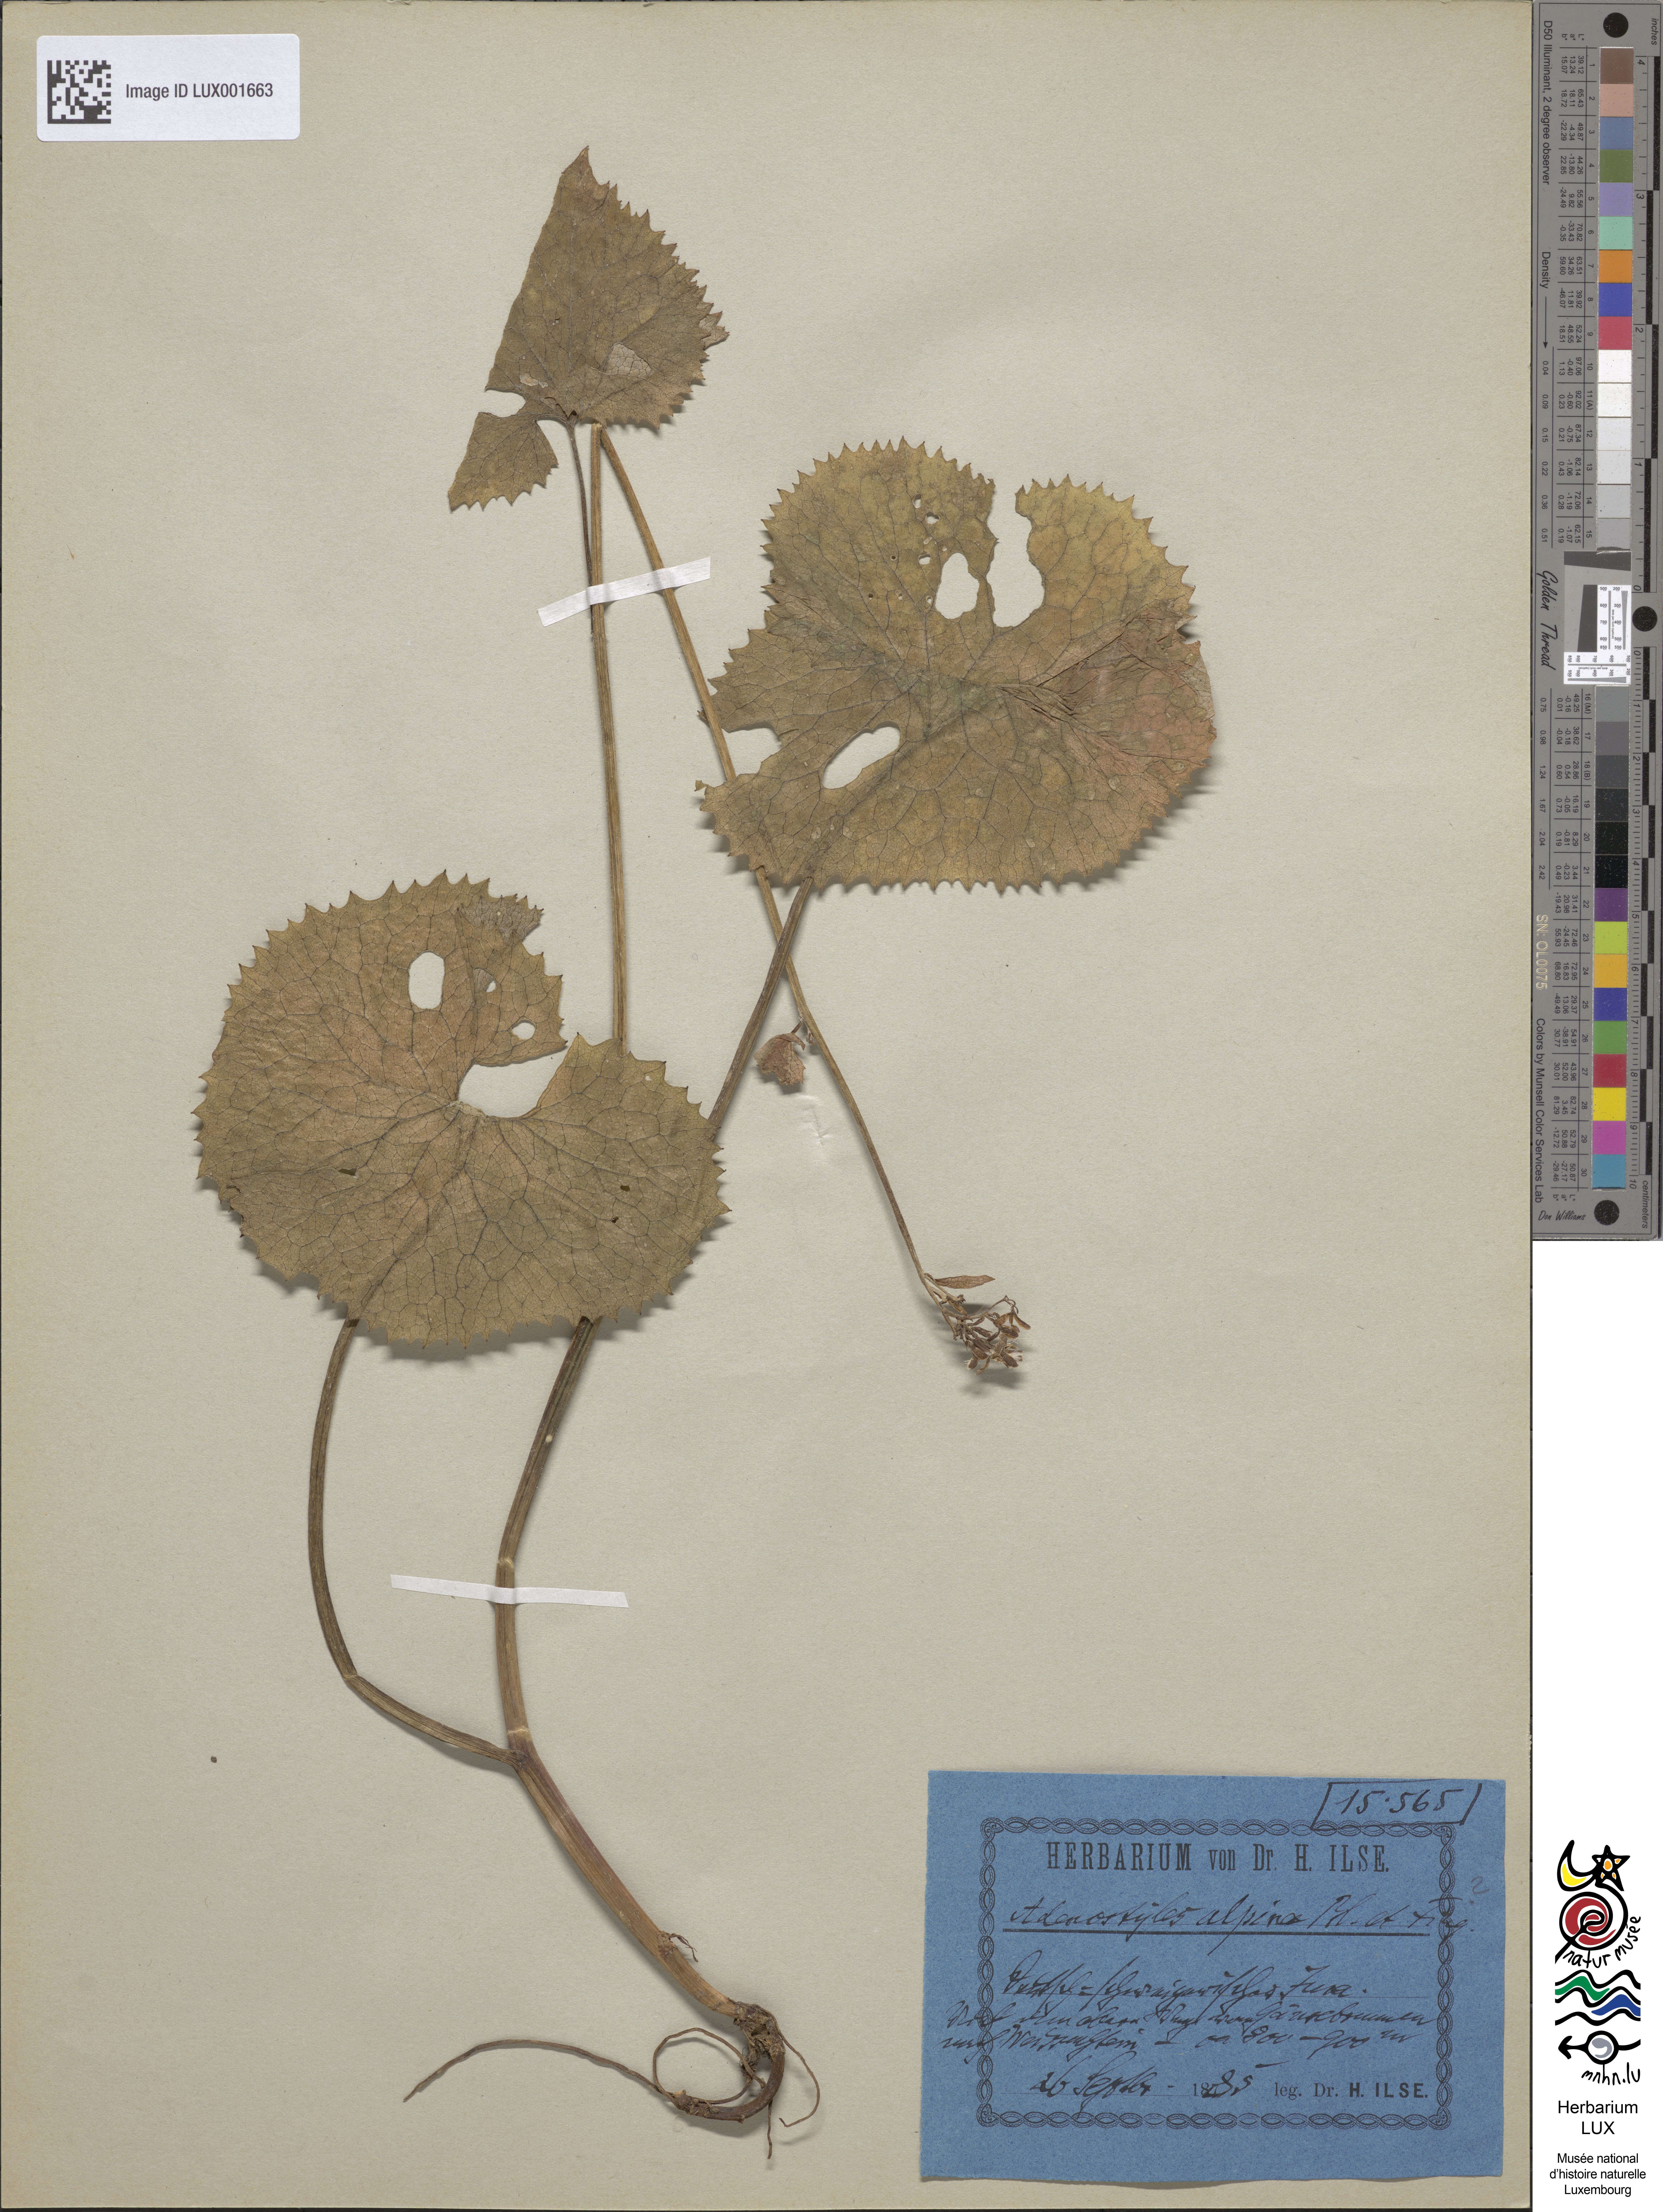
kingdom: Plantae
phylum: Tracheophyta
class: Magnoliopsida
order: Asterales
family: Asteraceae
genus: Adenostyles
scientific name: Adenostyles alpina
